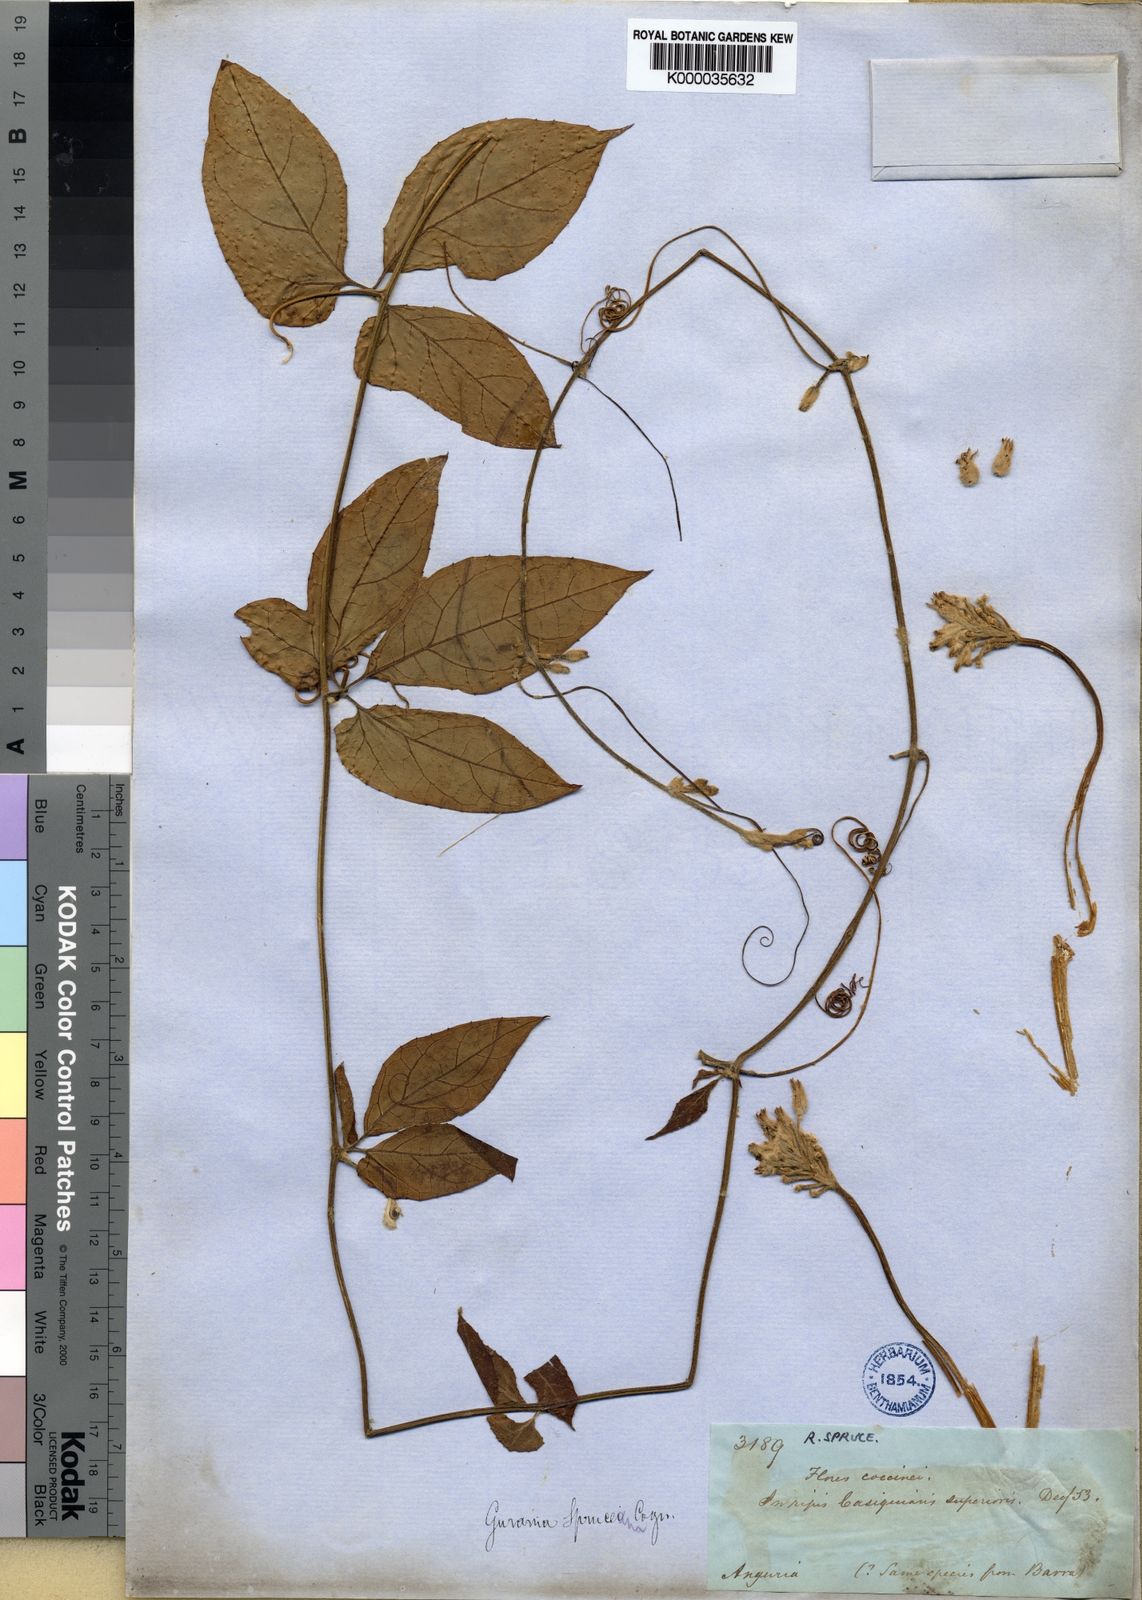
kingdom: Plantae
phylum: Tracheophyta
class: Magnoliopsida
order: Cucurbitales
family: Cucurbitaceae
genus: Gurania
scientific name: Gurania spruceana
